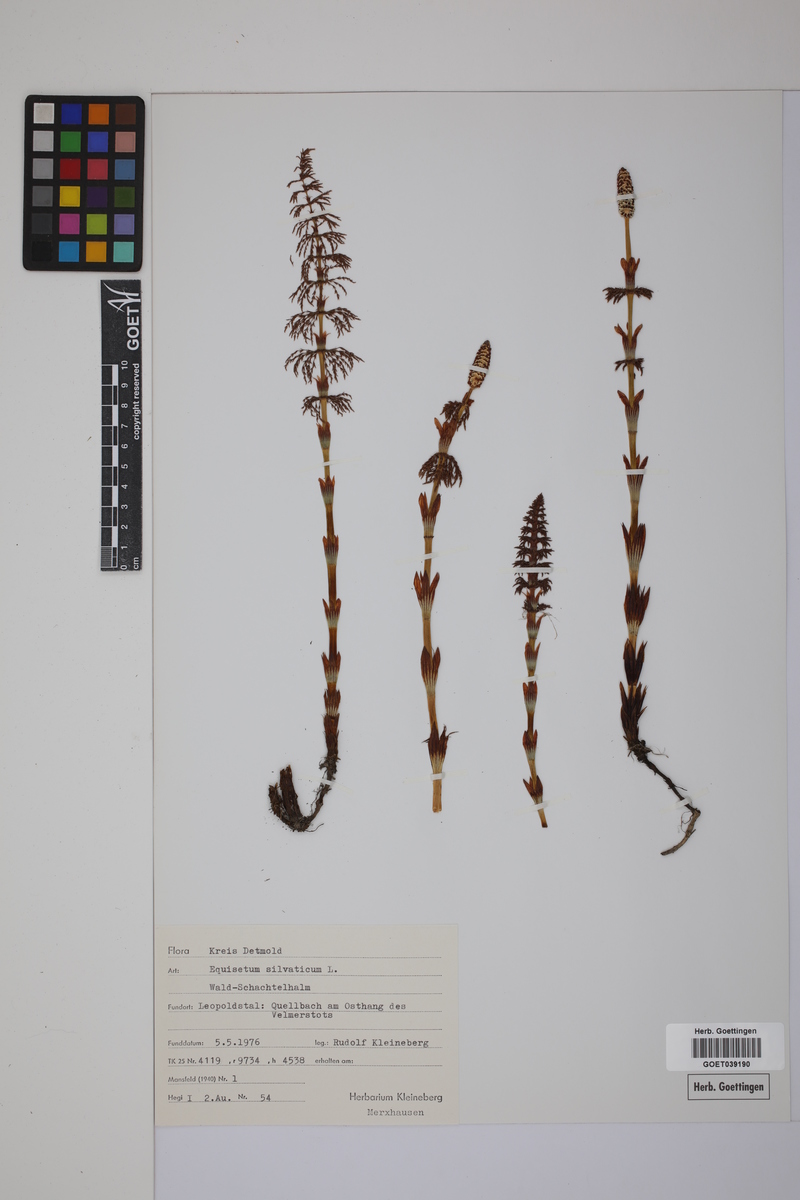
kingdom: Plantae
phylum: Tracheophyta
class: Polypodiopsida
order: Equisetales
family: Equisetaceae
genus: Equisetum
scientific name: Equisetum sylvaticum
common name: Wood horsetail
